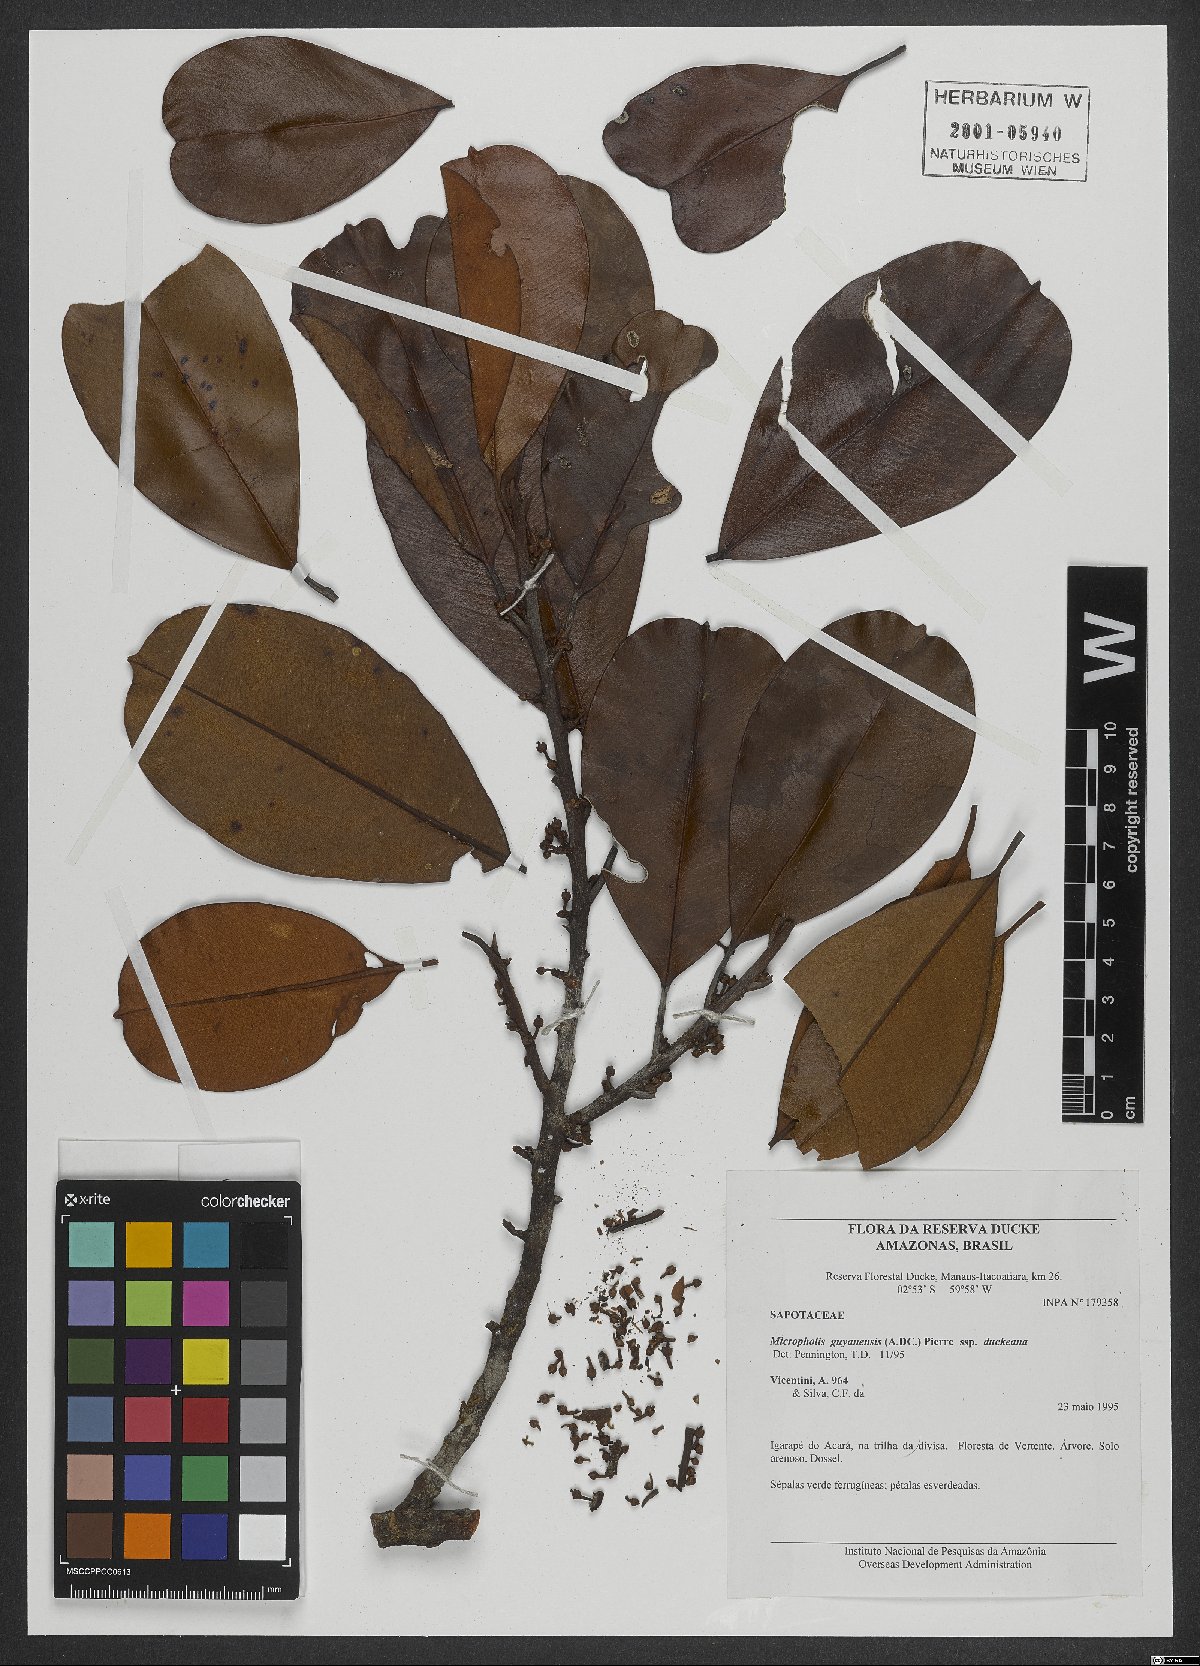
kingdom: Plantae
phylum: Tracheophyta
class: Magnoliopsida
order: Ericales
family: Sapotaceae
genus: Micropholis
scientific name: Micropholis guyanensis
